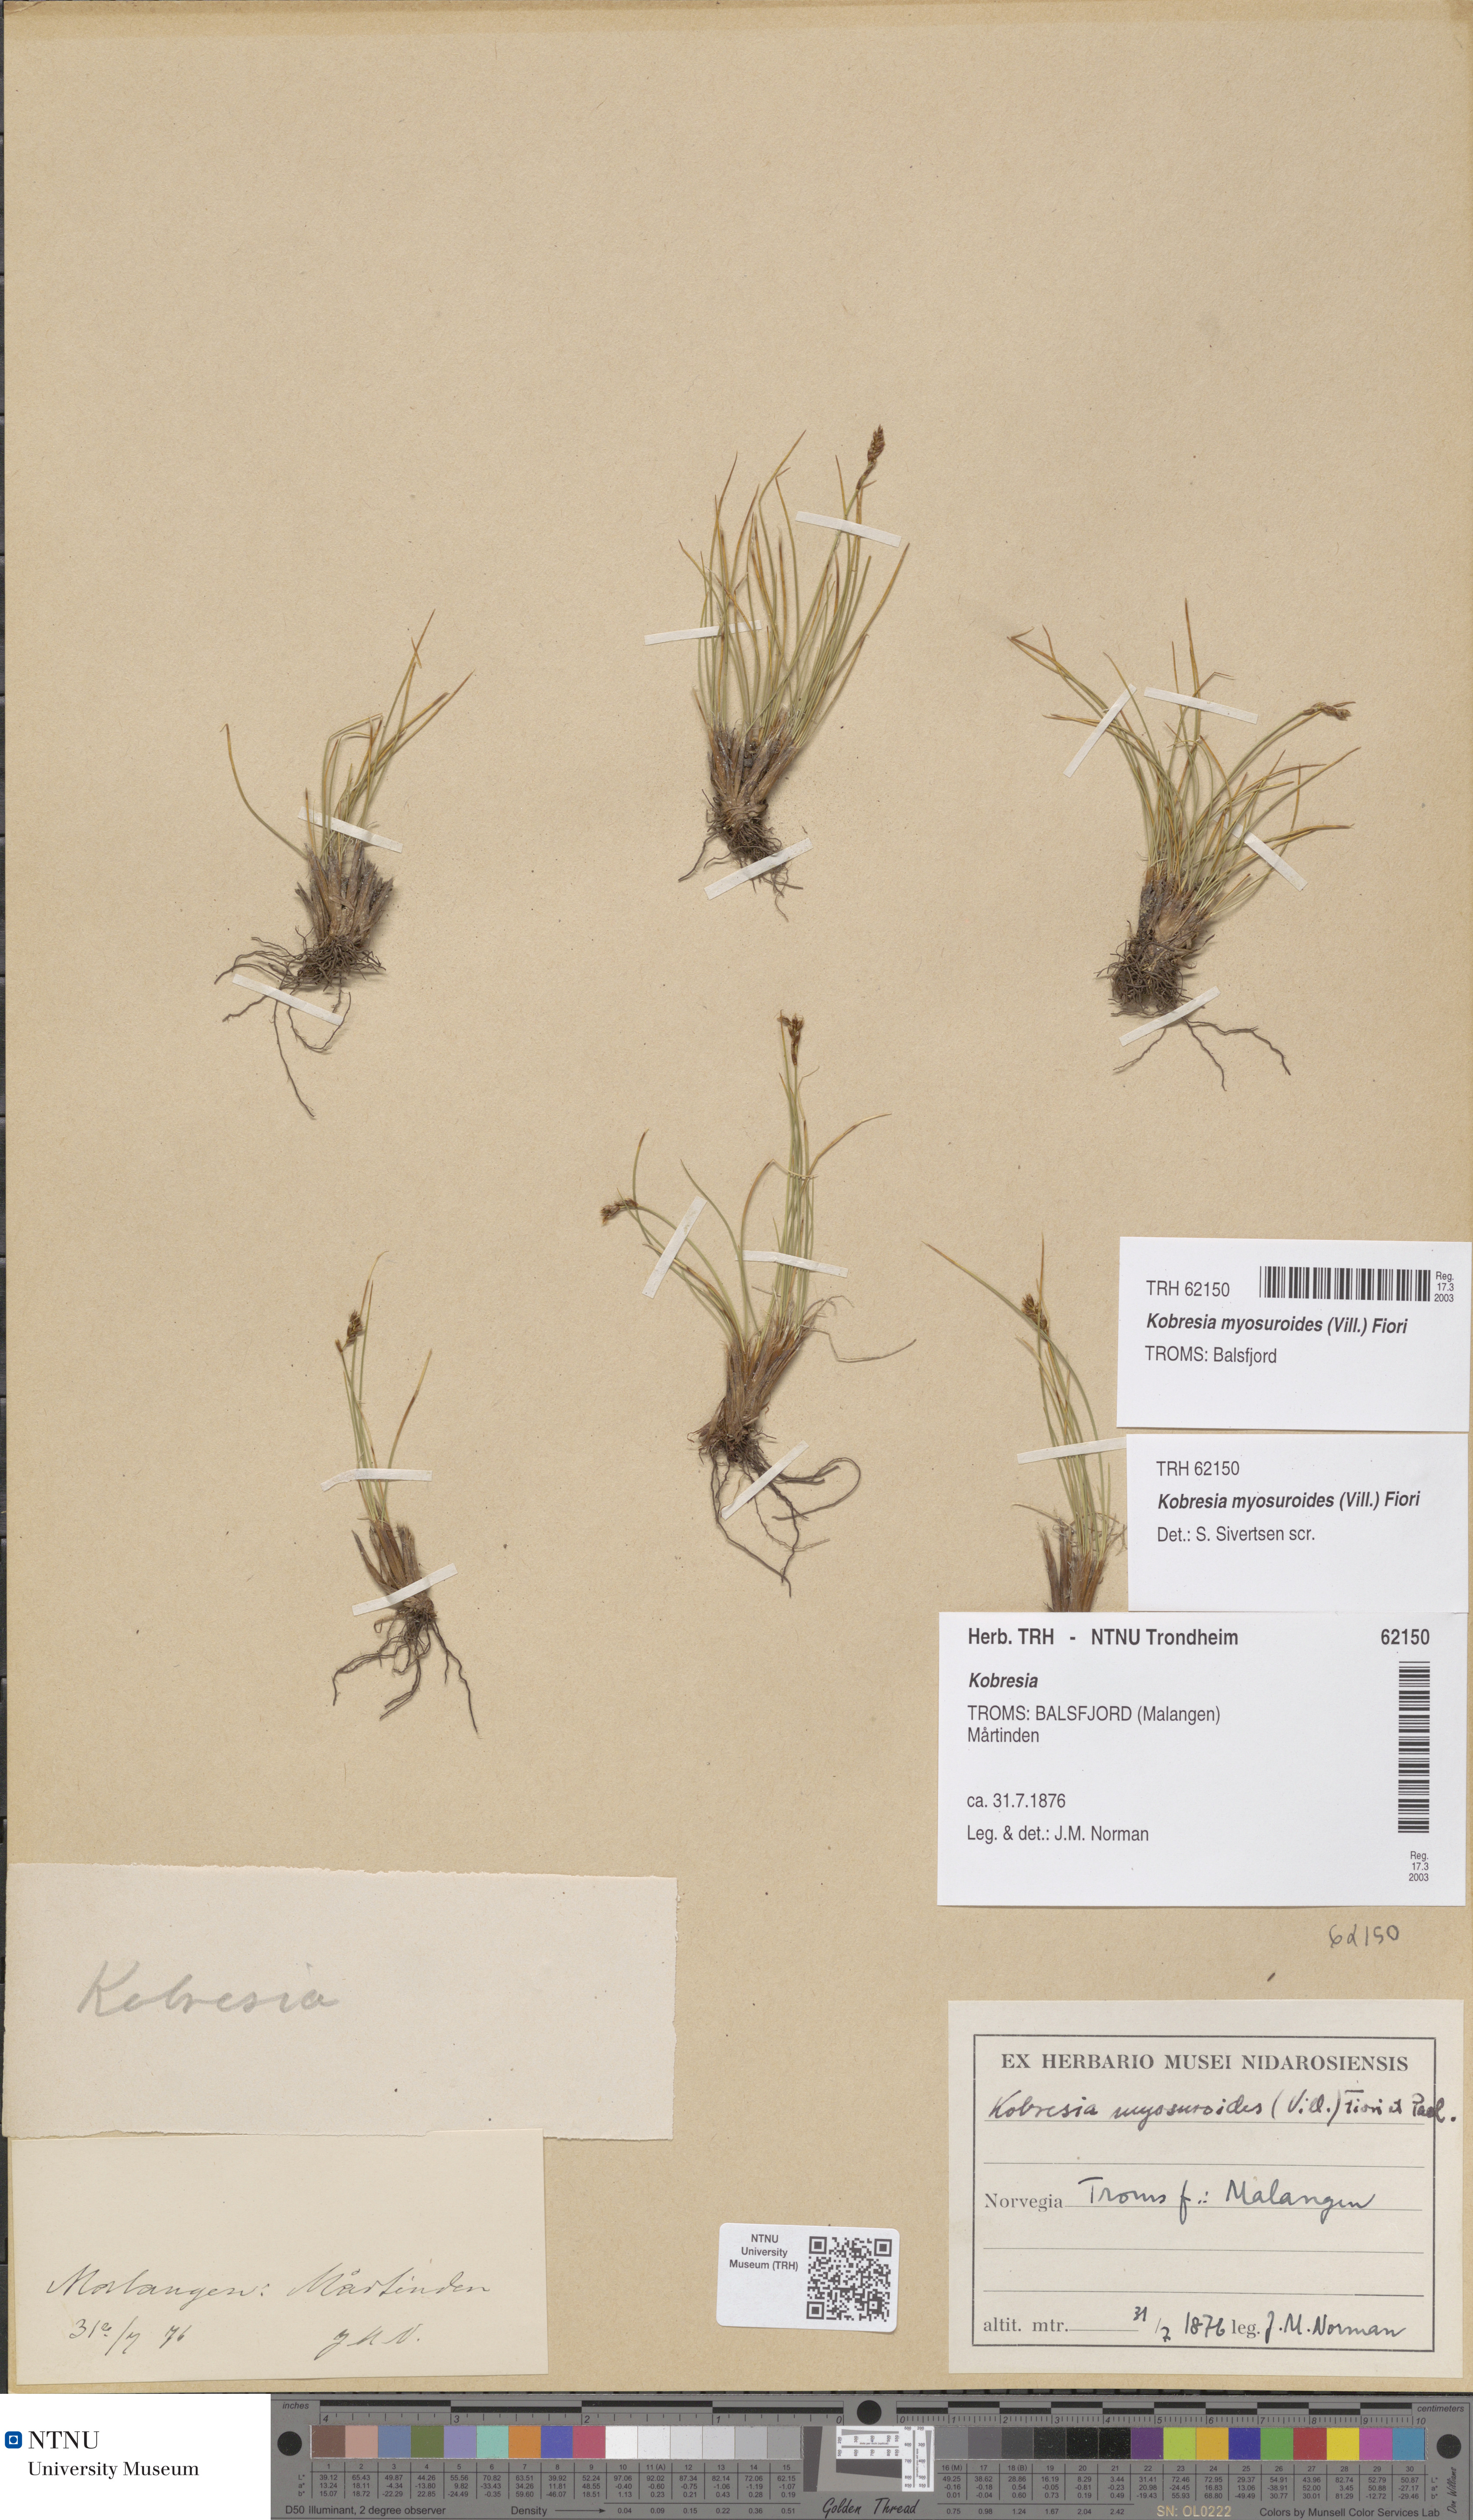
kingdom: Plantae
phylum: Tracheophyta
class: Liliopsida
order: Poales
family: Cyperaceae
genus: Carex
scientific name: Carex myosuroides
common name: Bellard's bog sedge
